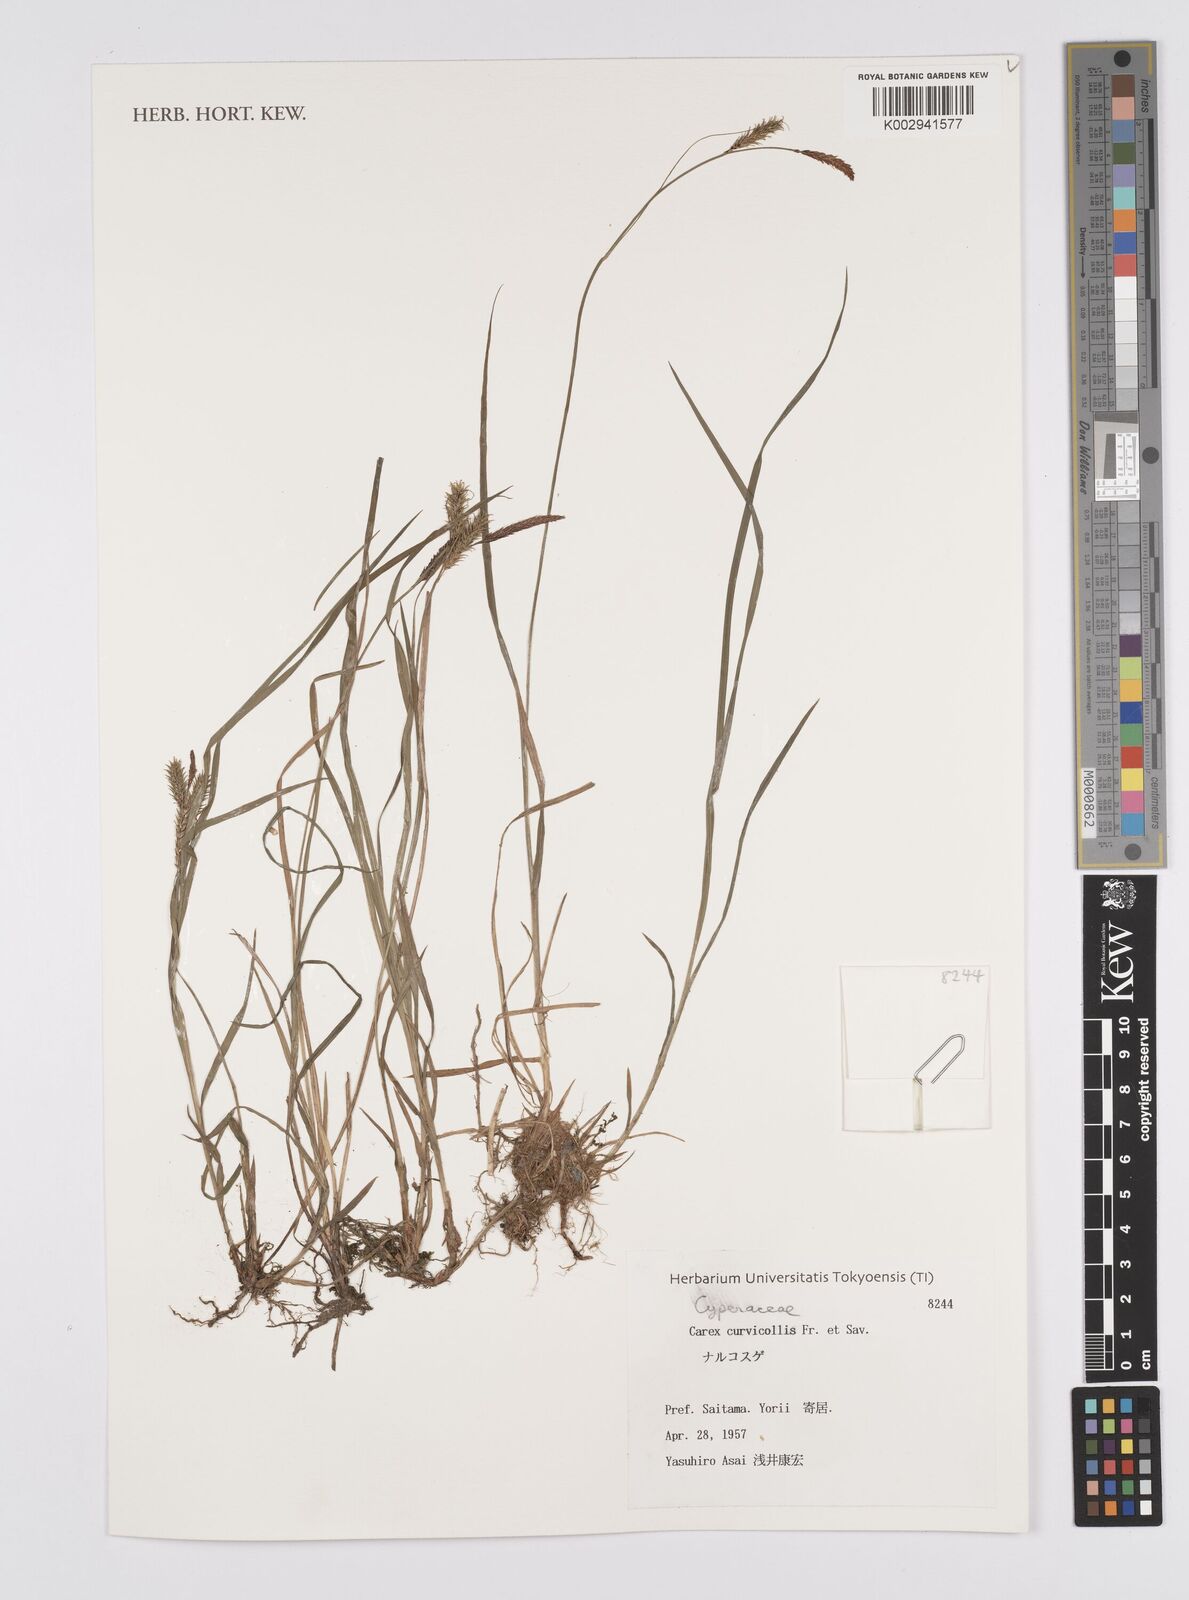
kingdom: Plantae
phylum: Tracheophyta
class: Liliopsida
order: Poales
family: Cyperaceae
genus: Carex
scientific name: Carex curvicollis
